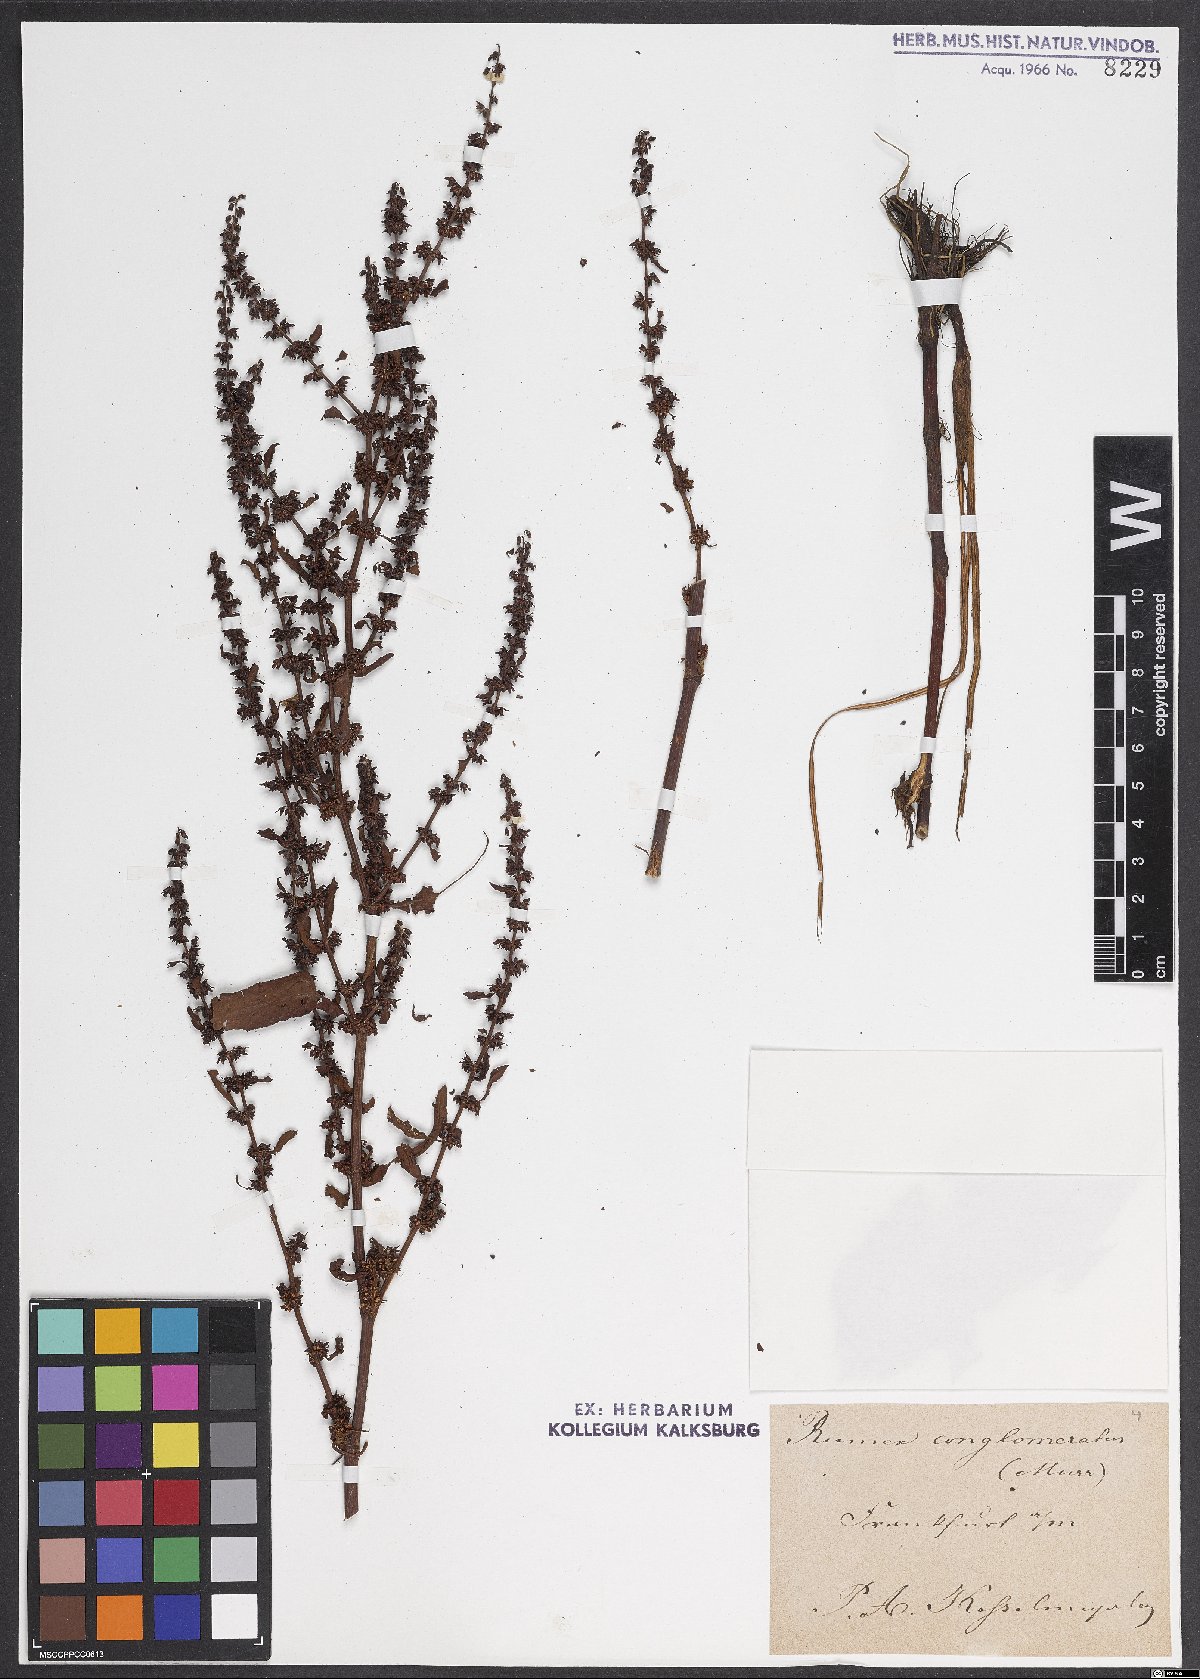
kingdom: Plantae
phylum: Tracheophyta
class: Magnoliopsida
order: Caryophyllales
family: Polygonaceae
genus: Rumex
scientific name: Rumex conglomeratus
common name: Clustered dock
